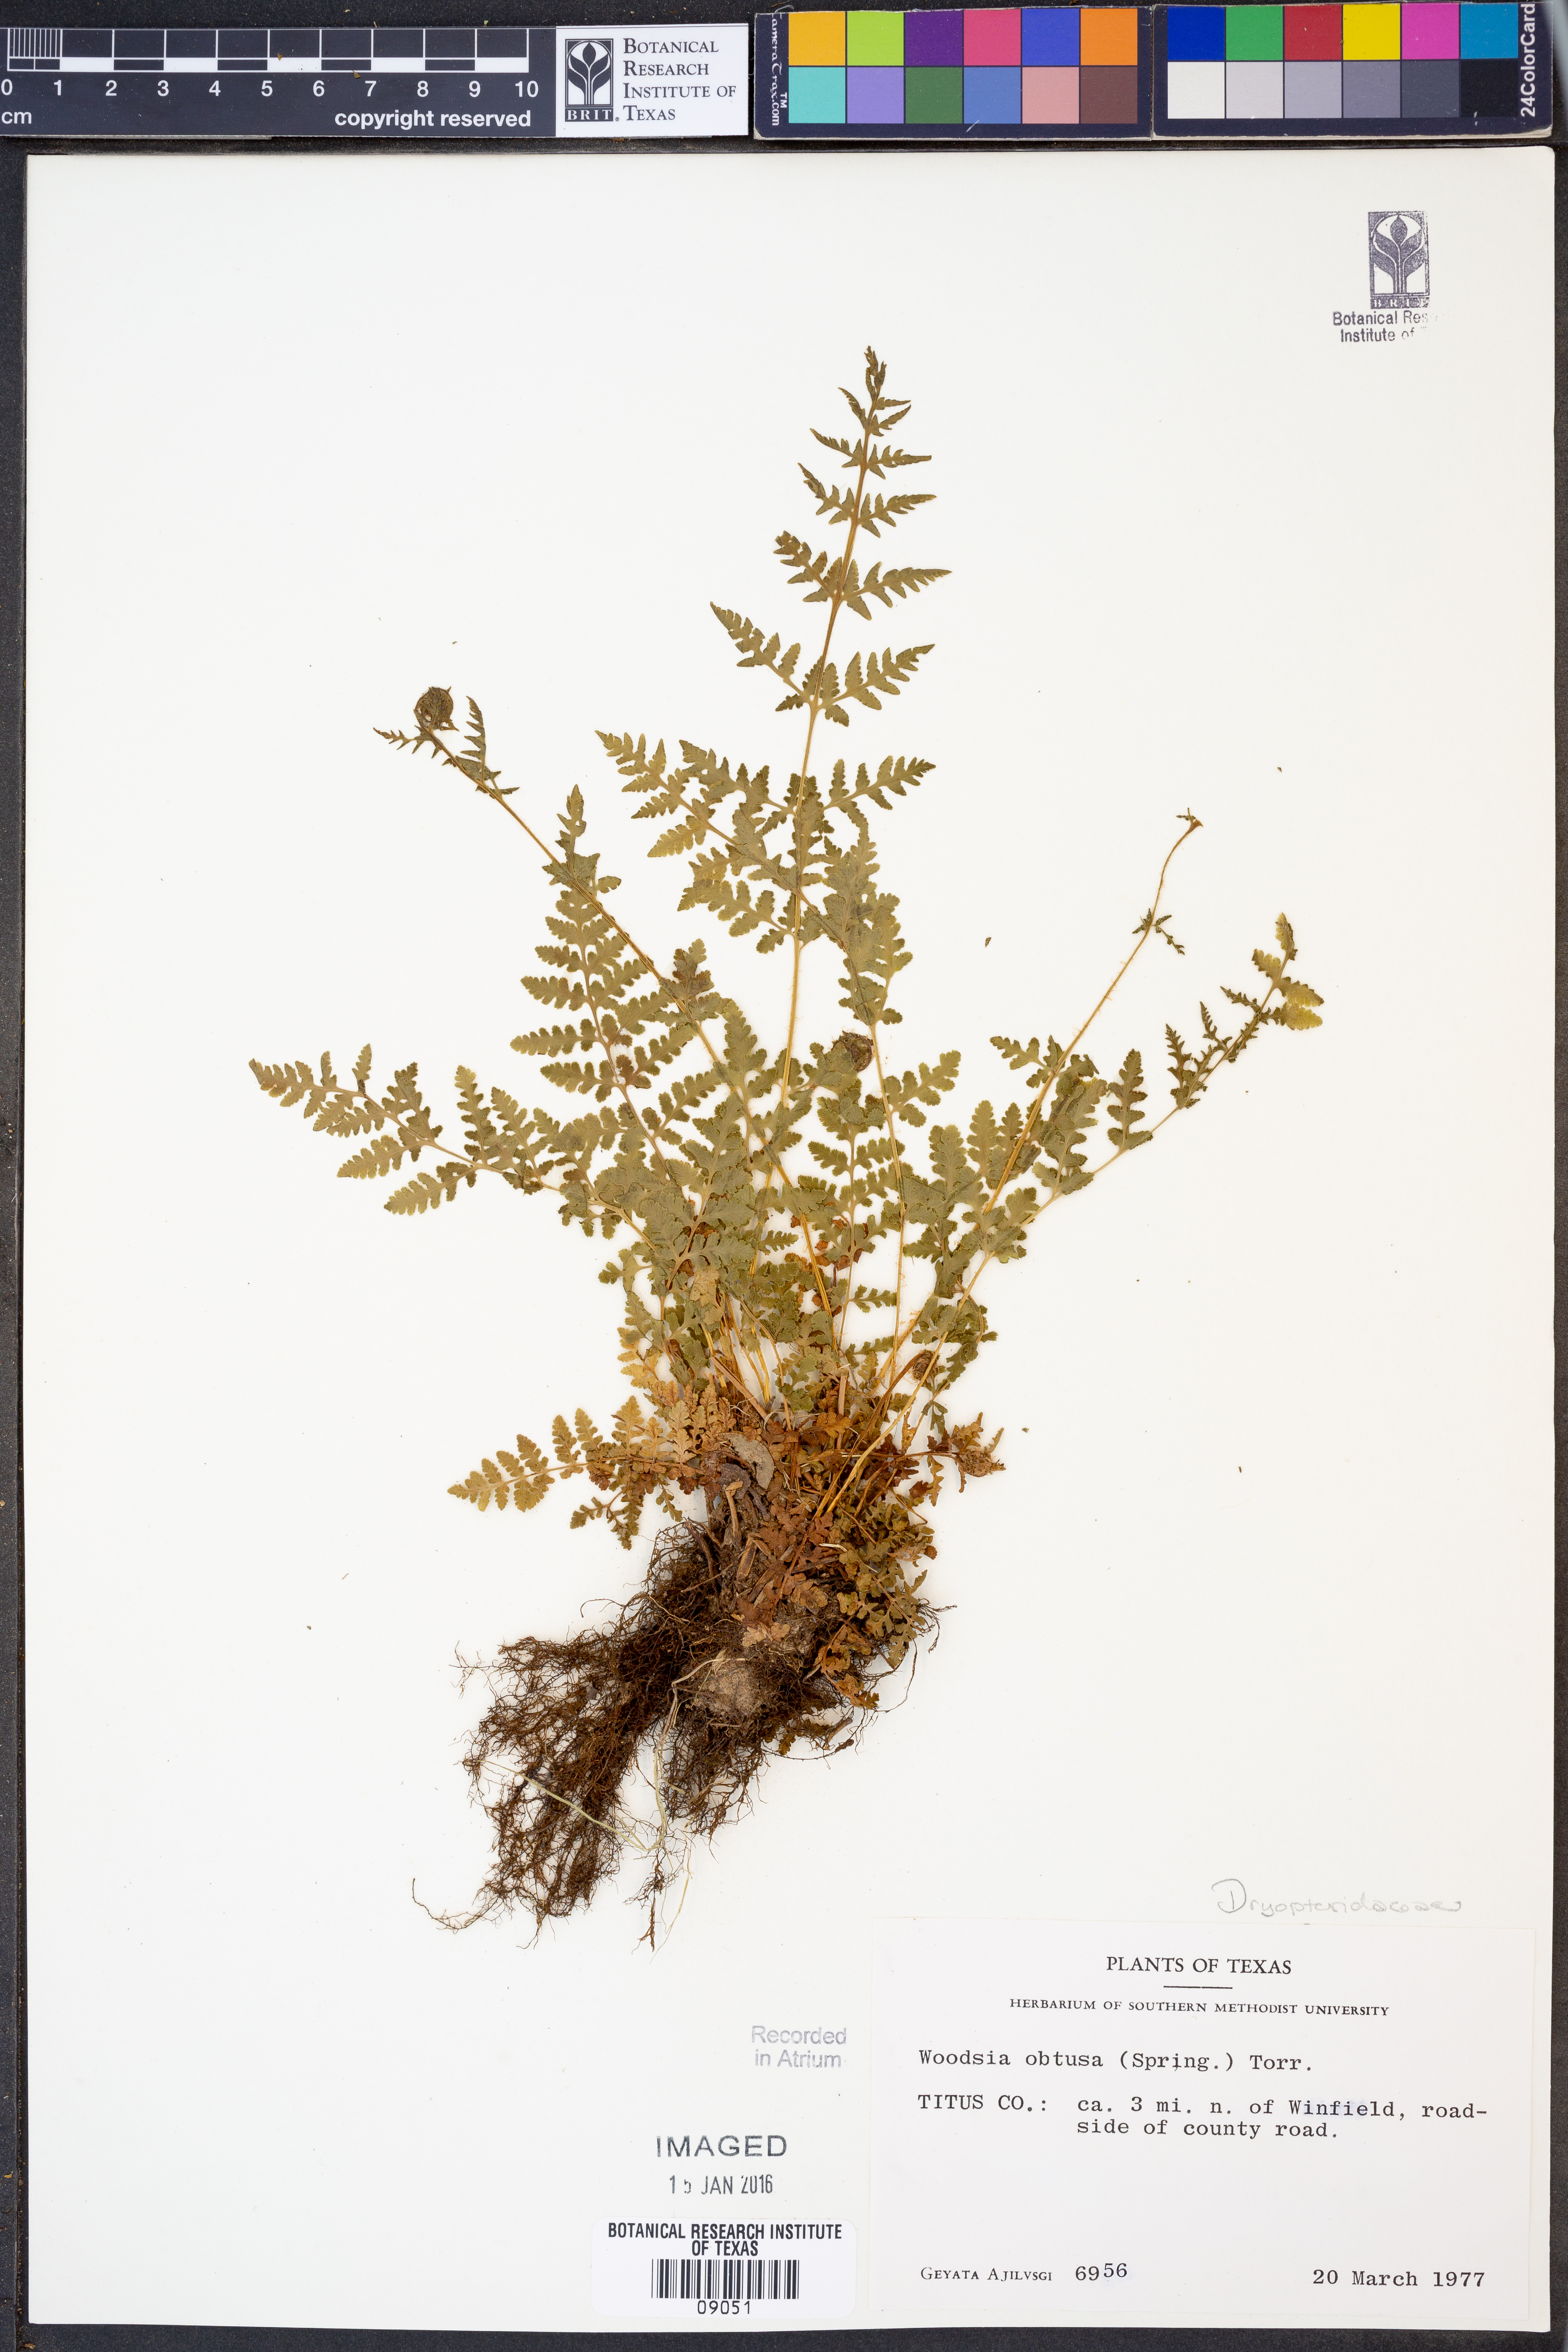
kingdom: Plantae
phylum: Tracheophyta
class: Polypodiopsida
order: Polypodiales
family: Woodsiaceae
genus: Physematium
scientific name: Physematium obtusum
